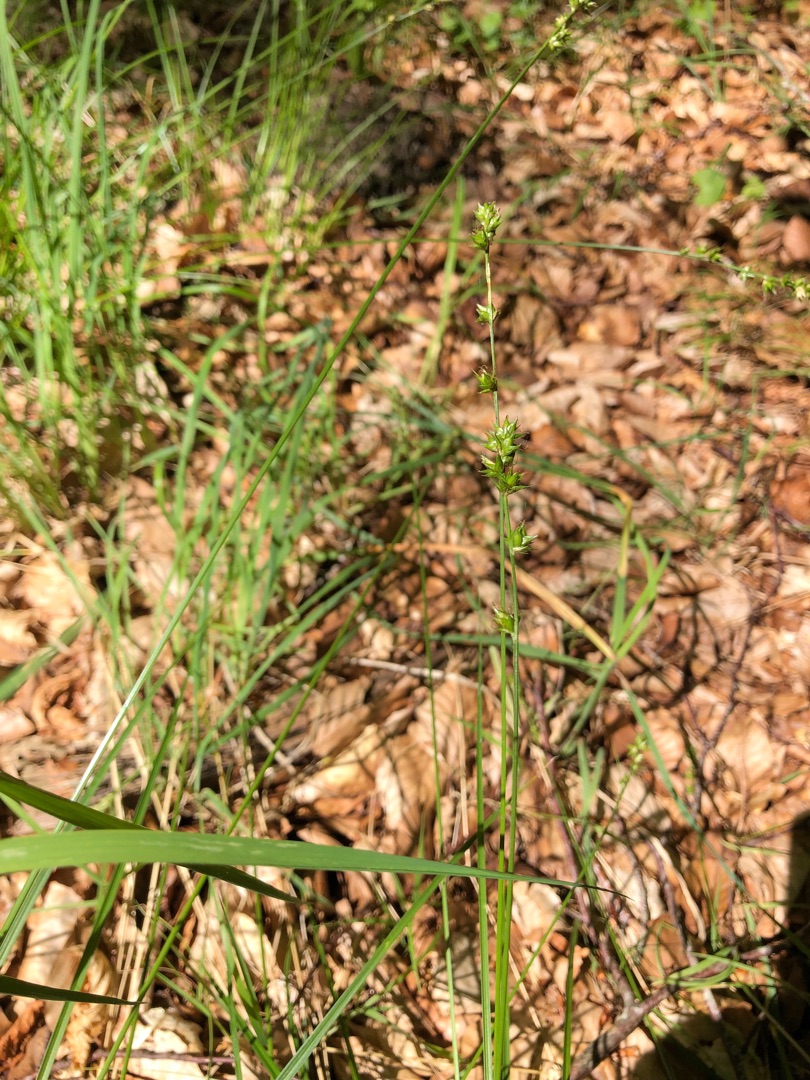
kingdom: Plantae
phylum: Tracheophyta
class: Liliopsida
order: Poales
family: Cyperaceae
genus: Carex
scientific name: Carex divulsa
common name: Mellembrudt star
